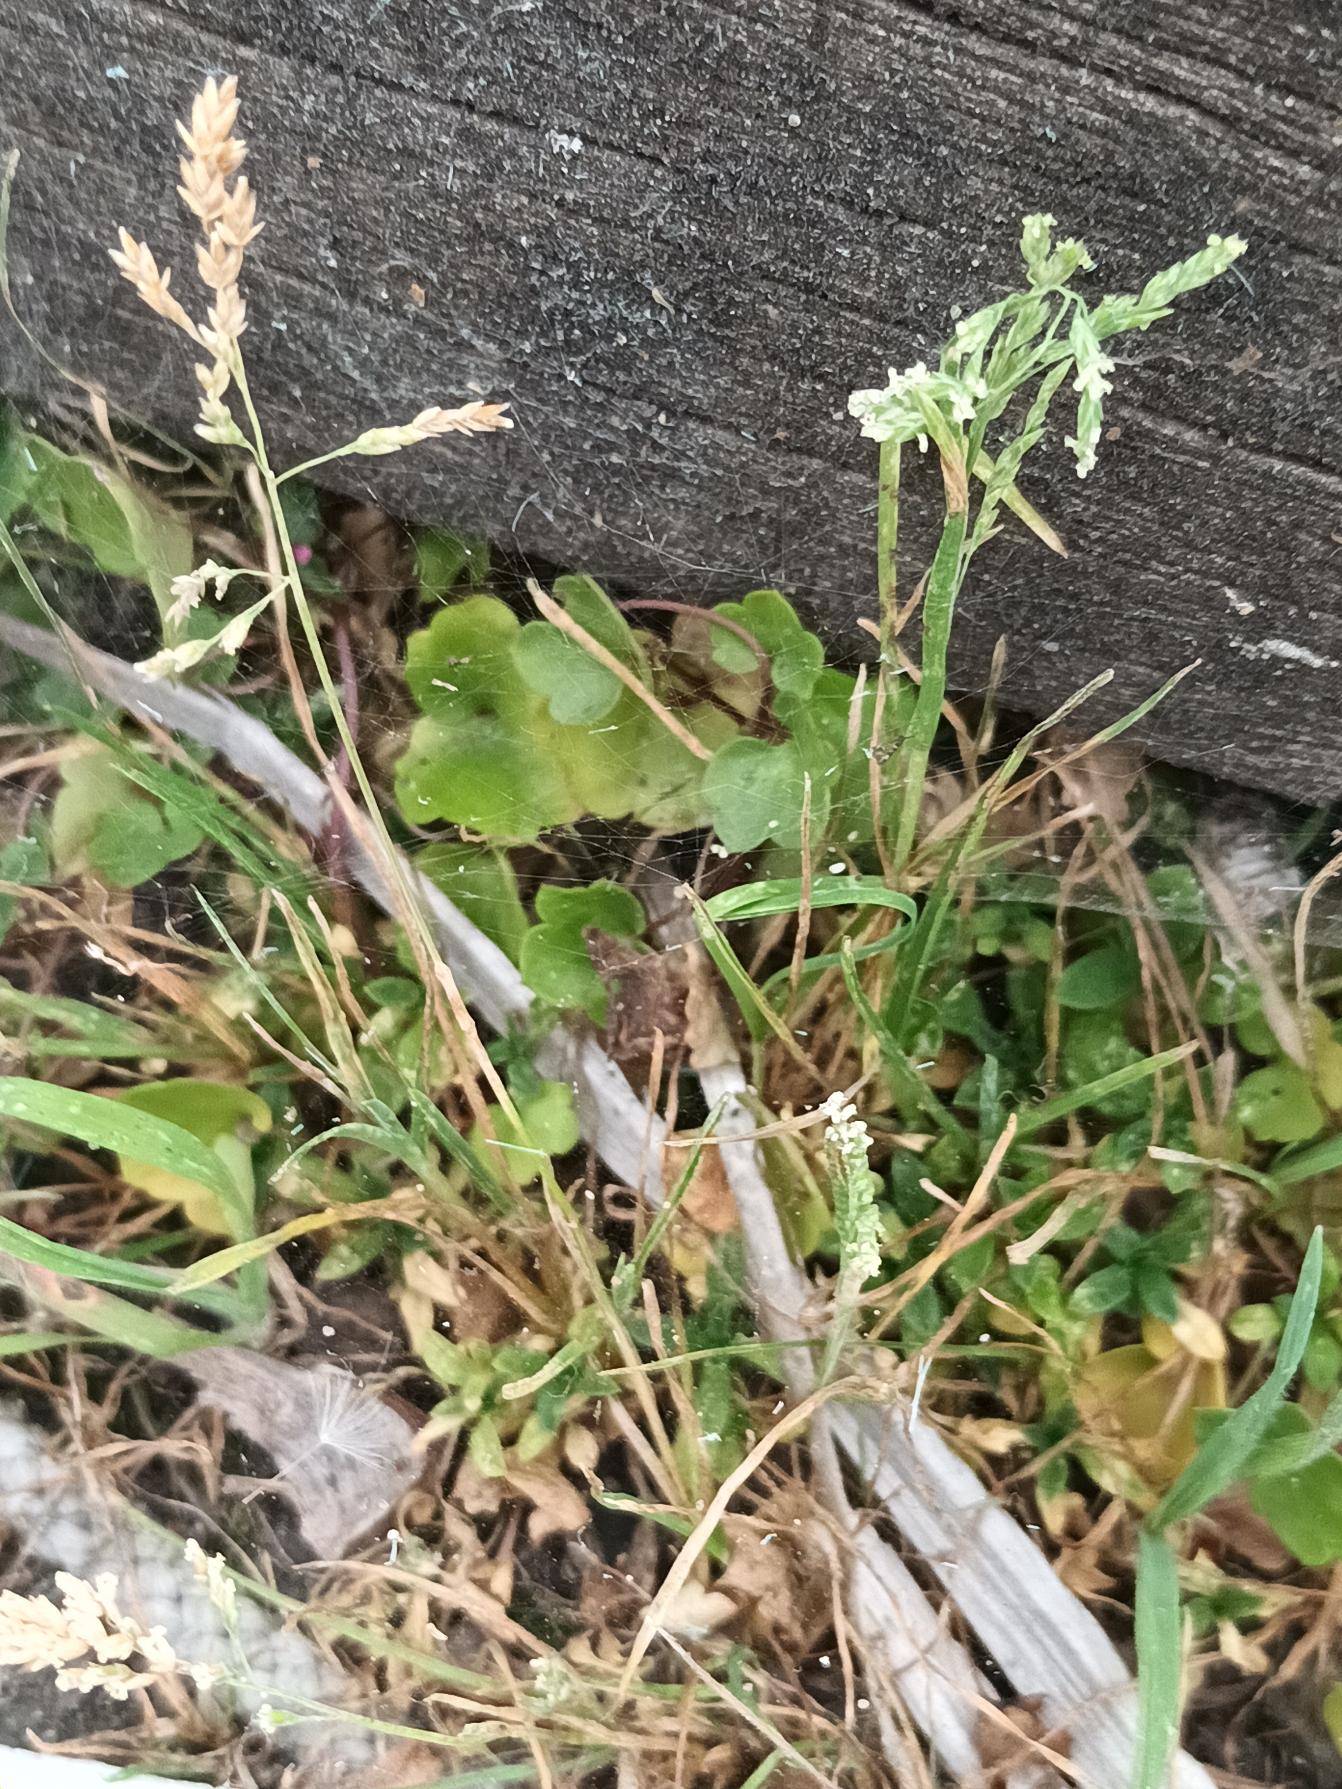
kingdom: Plantae
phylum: Tracheophyta
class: Liliopsida
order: Poales
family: Poaceae
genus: Poa
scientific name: Poa annua
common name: Enårig rapgræs
